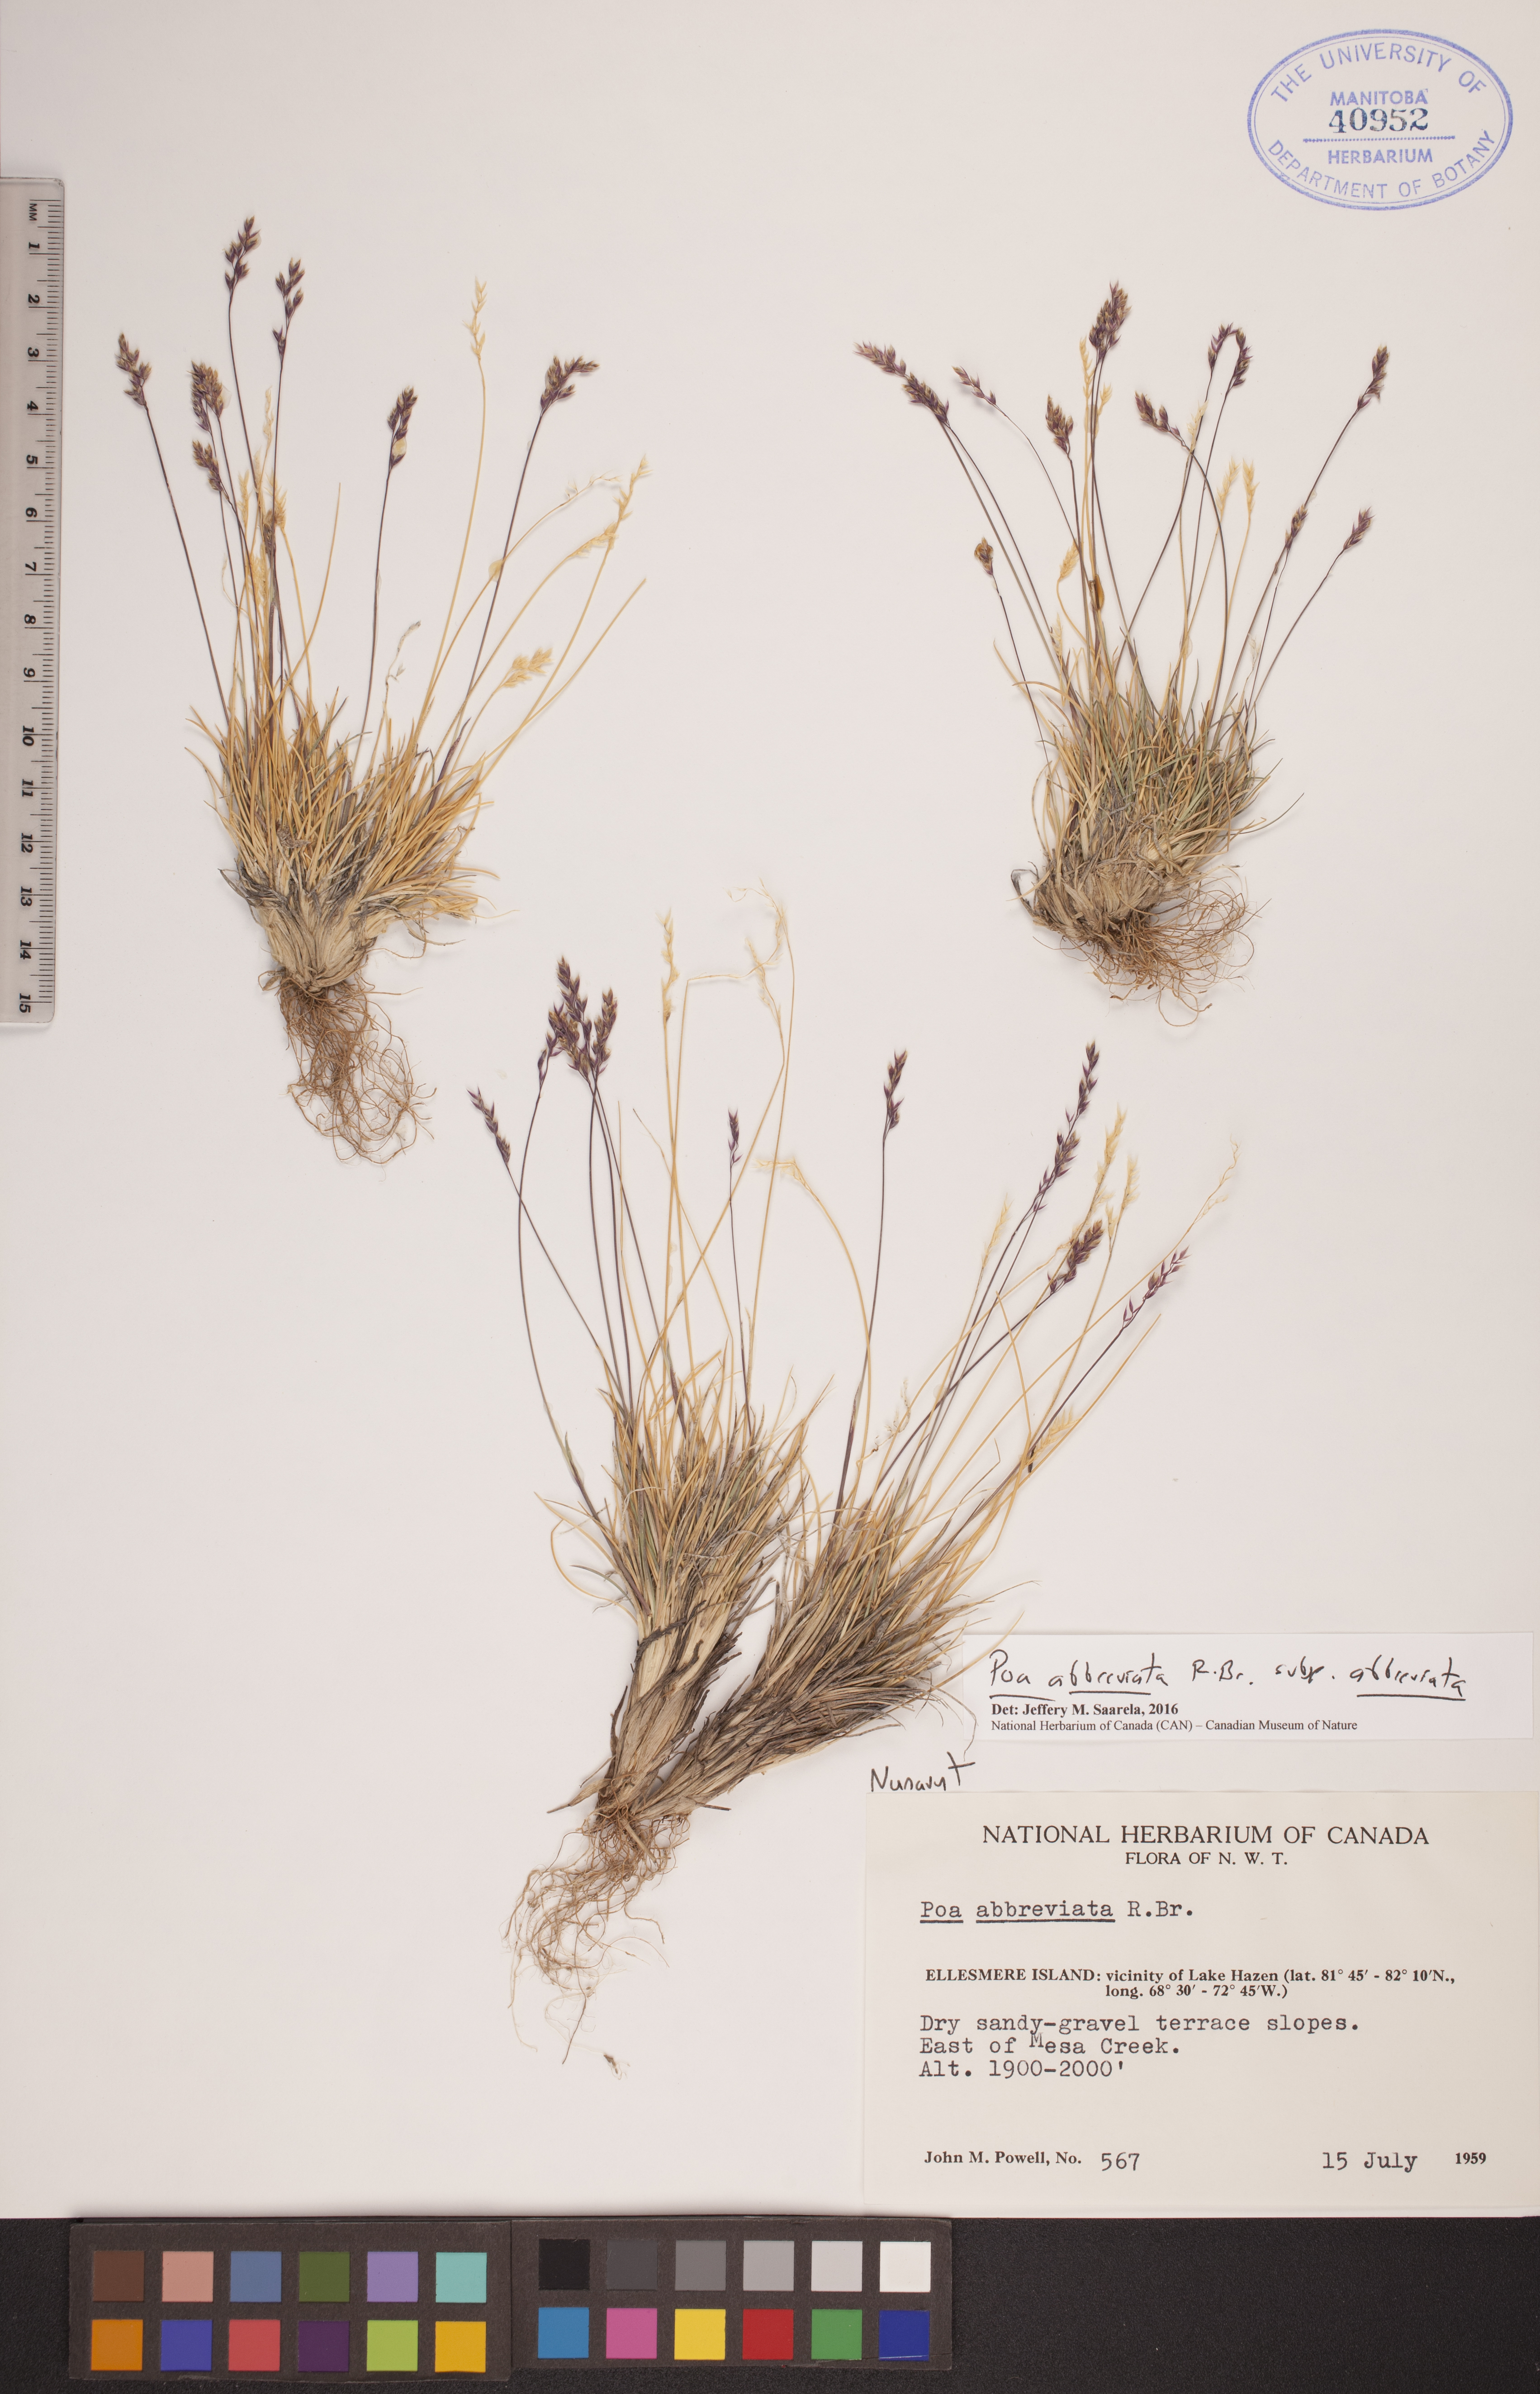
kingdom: Plantae
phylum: Tracheophyta
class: Liliopsida
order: Poales
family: Poaceae
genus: Poa
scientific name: Poa abbreviata
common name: Abbreviated bluegrass
